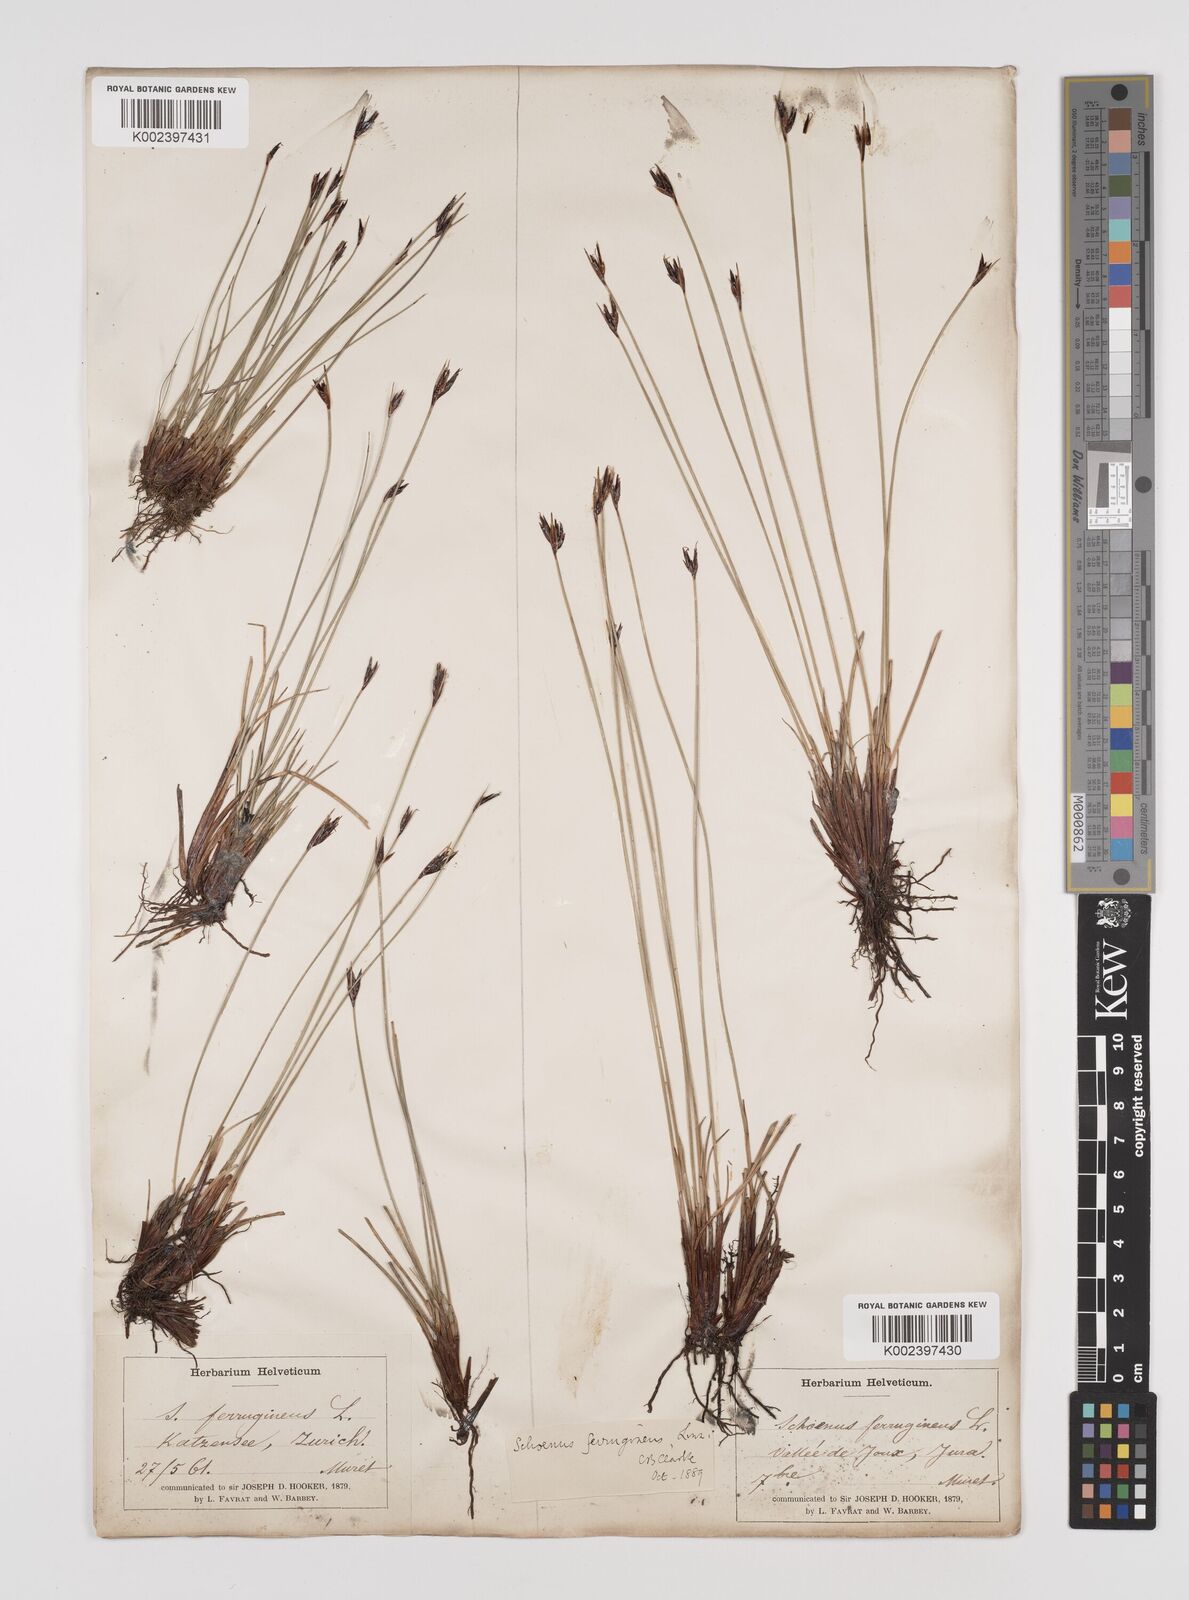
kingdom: Plantae
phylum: Tracheophyta
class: Liliopsida
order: Poales
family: Cyperaceae
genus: Schoenus
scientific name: Schoenus ferrugineus
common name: Brown bog-rush
